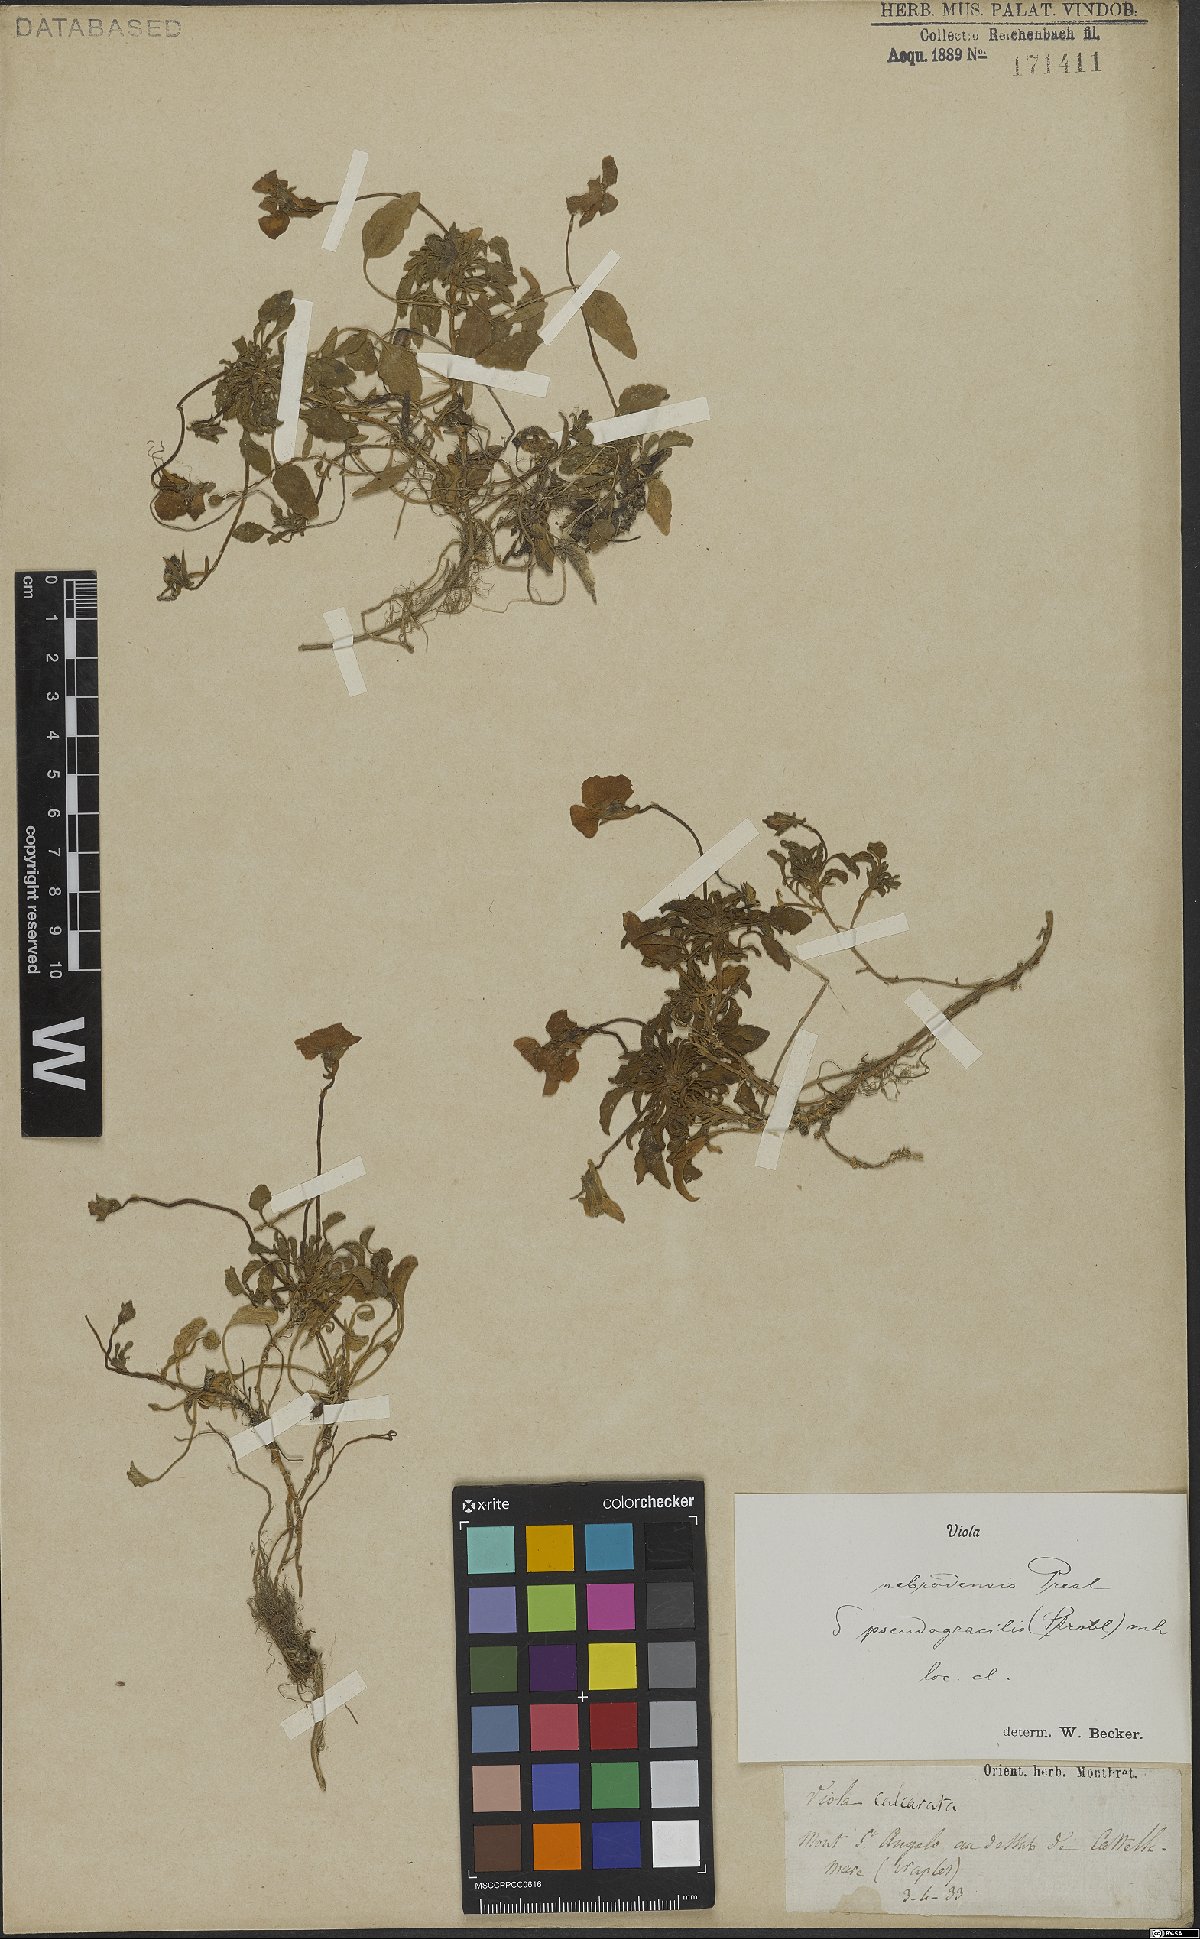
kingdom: Plantae
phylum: Tracheophyta
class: Magnoliopsida
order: Malpighiales
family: Violaceae
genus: Viola
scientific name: Viola nebrodensis
